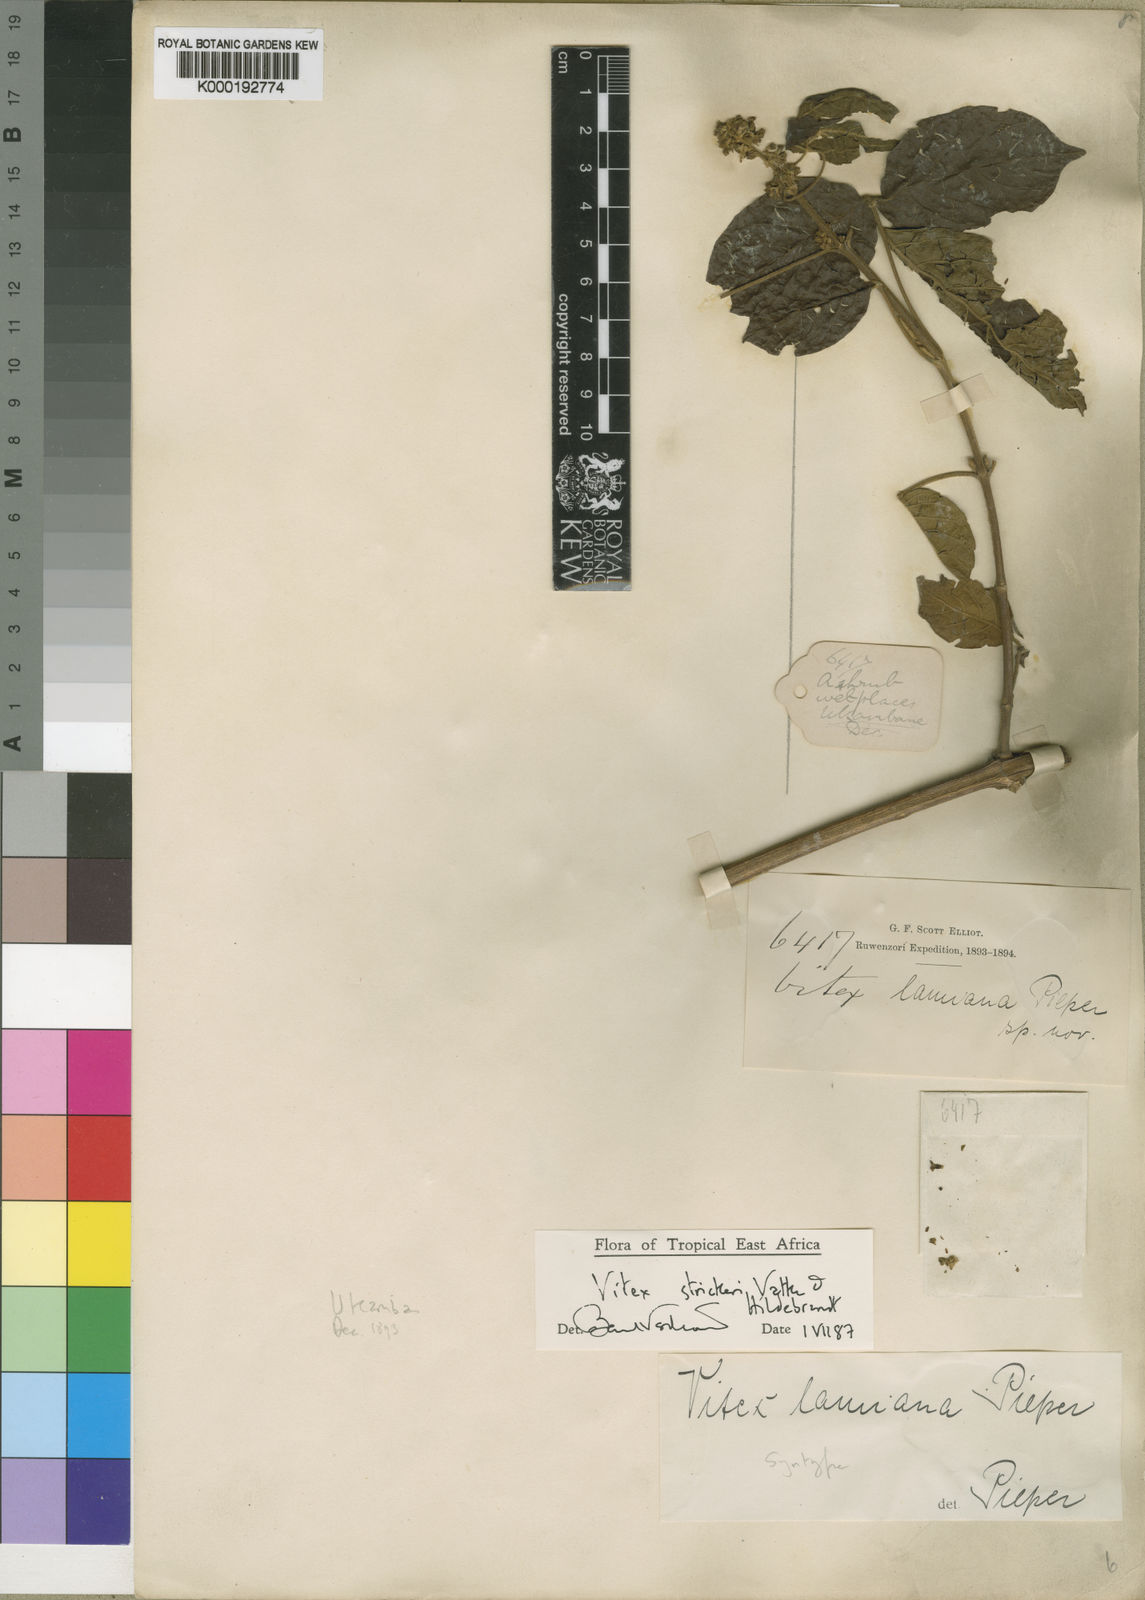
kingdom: Plantae
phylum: Tracheophyta
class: Magnoliopsida
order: Lamiales
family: Lamiaceae
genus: Vitex
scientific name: Vitex strickeri
